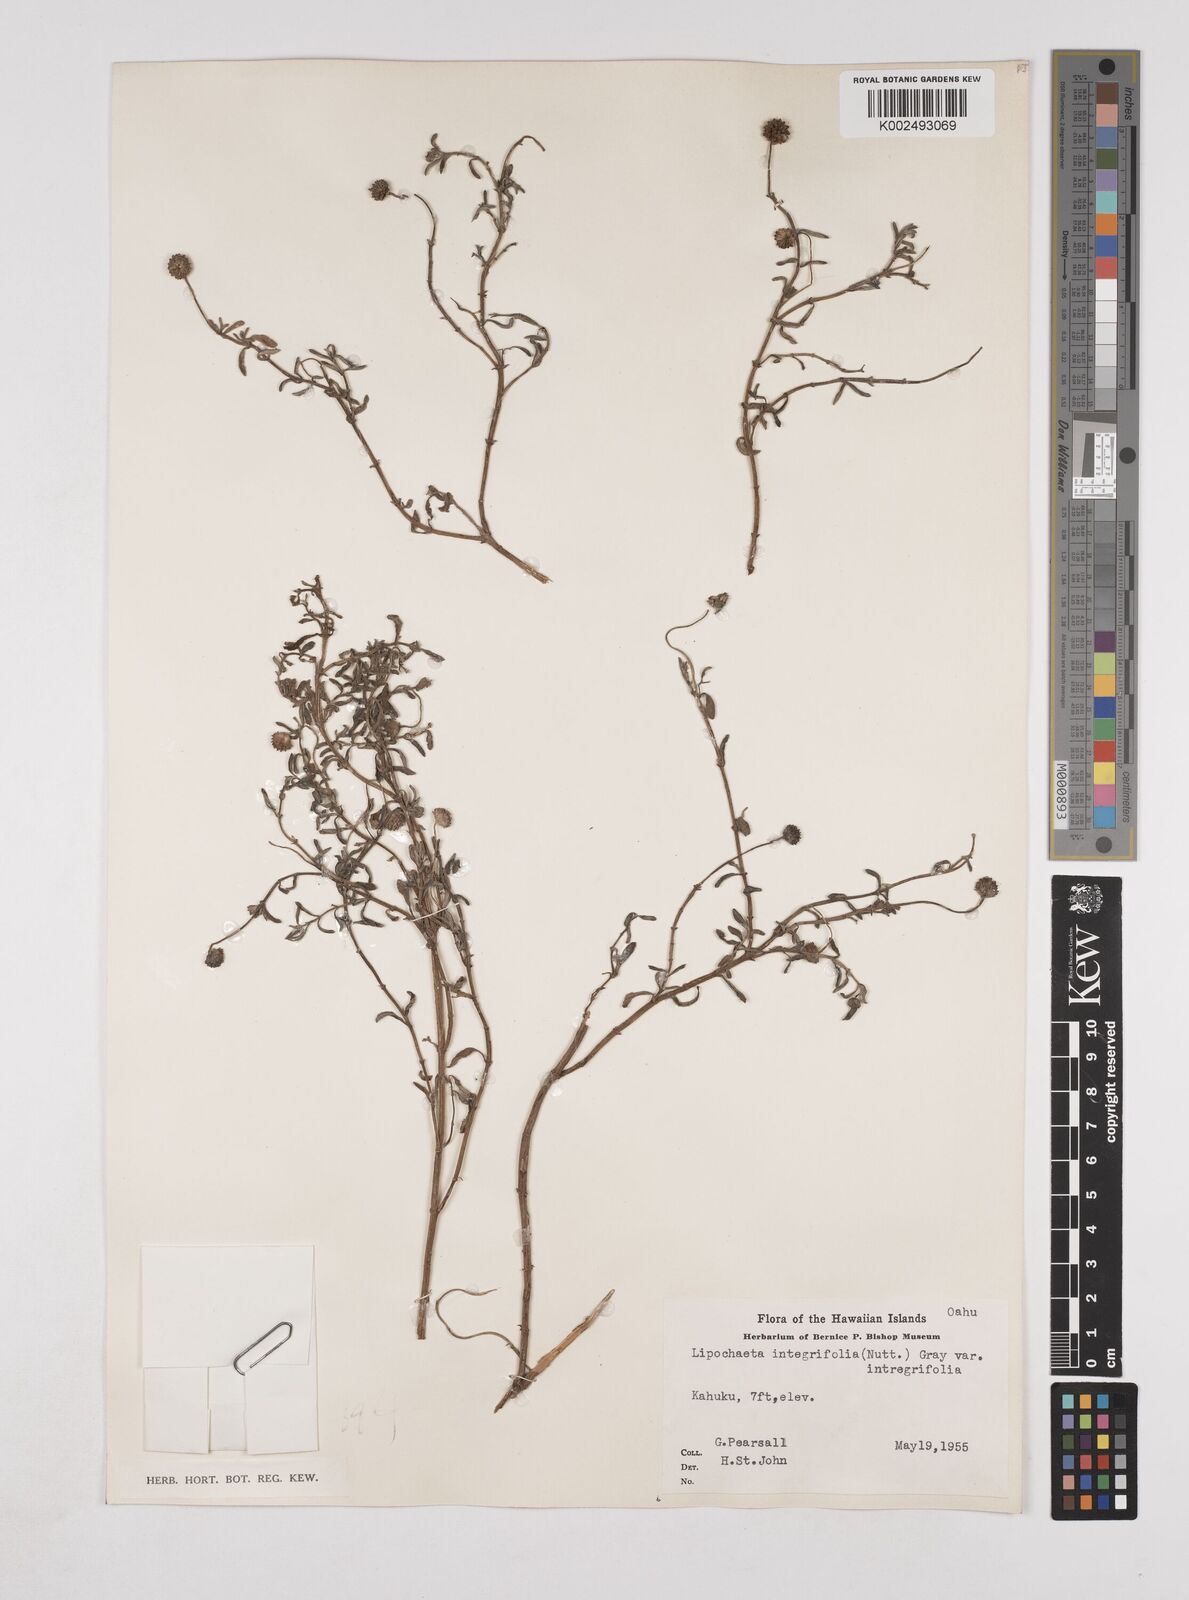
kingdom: Plantae
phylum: Tracheophyta
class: Magnoliopsida
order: Asterales
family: Asteraceae
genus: Lipochaeta
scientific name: Lipochaeta integrifolia
